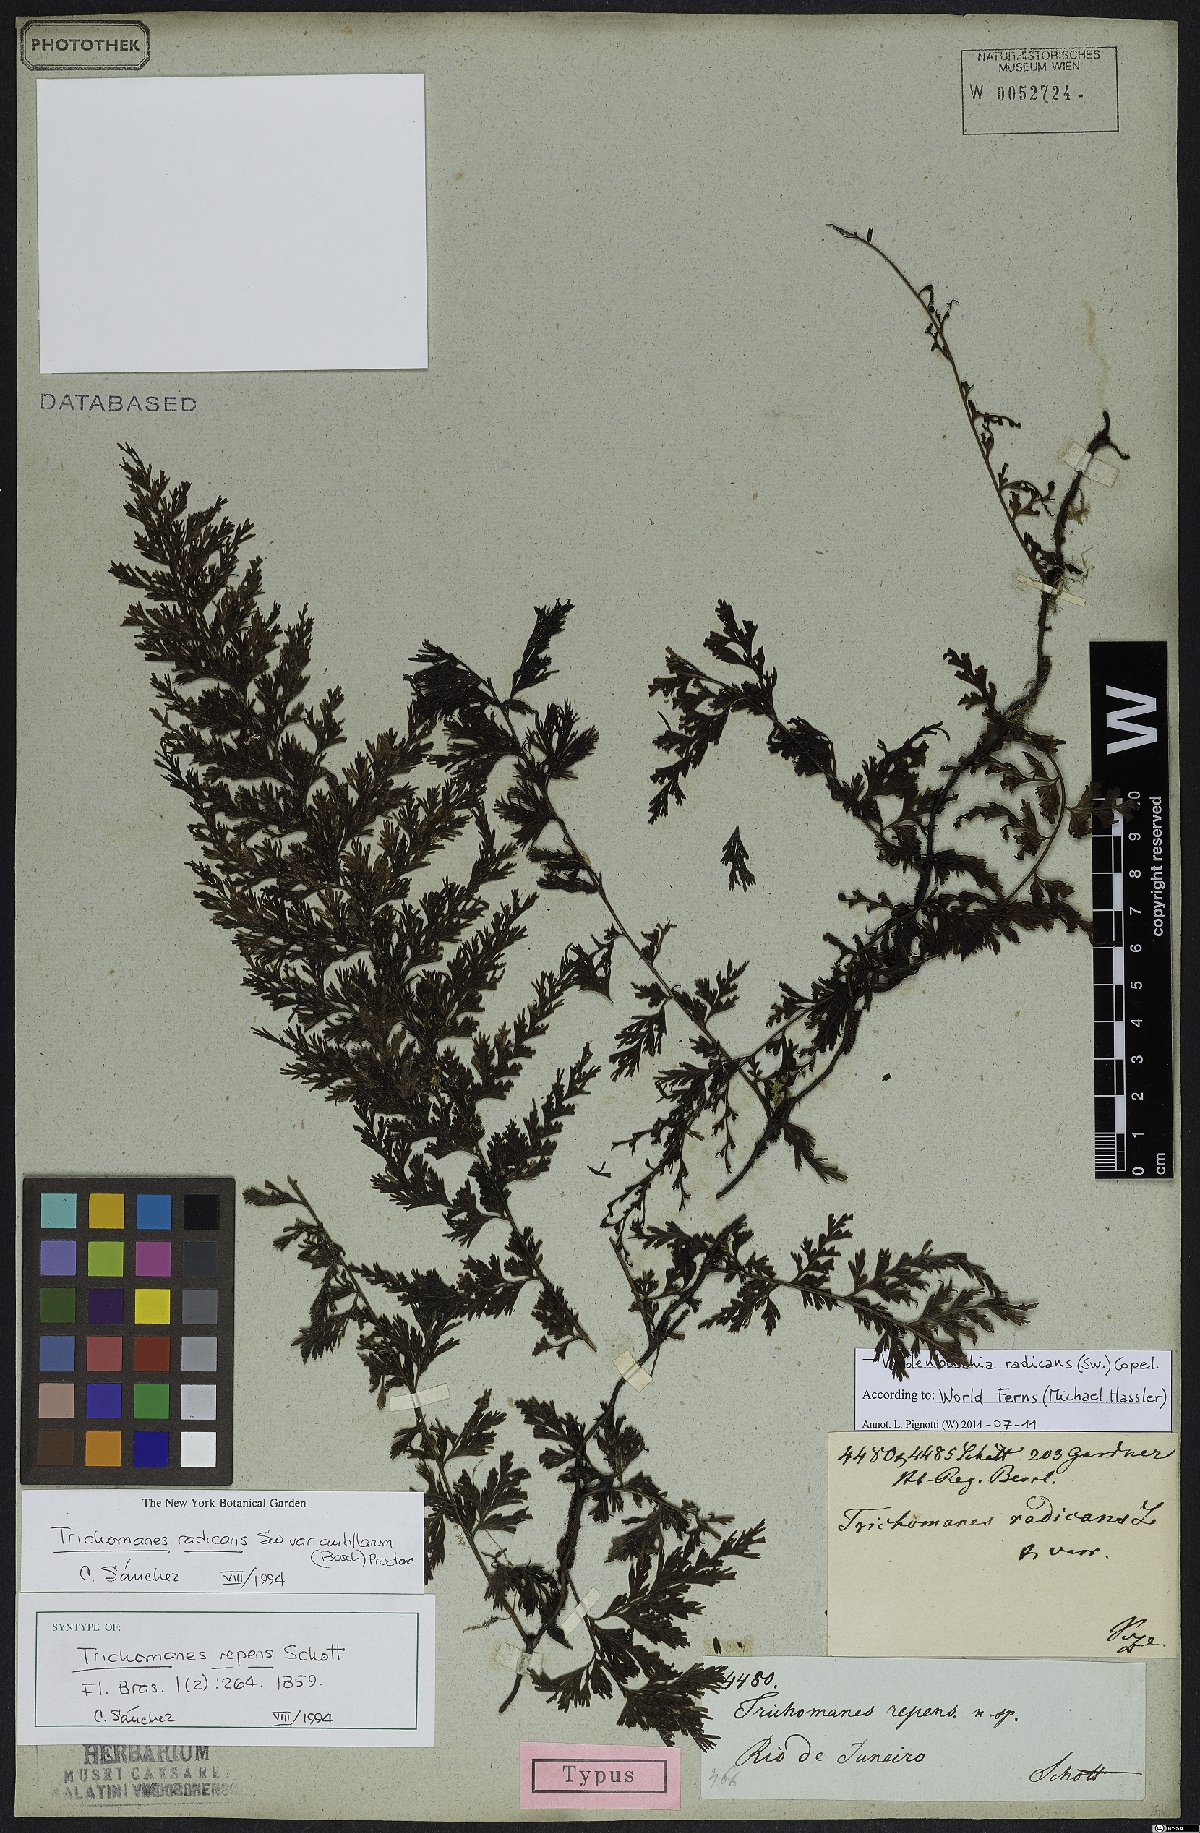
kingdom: Plantae
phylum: Tracheophyta
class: Polypodiopsida
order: Hymenophyllales
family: Hymenophyllaceae
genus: Vandenboschia
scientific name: Vandenboschia radicans
